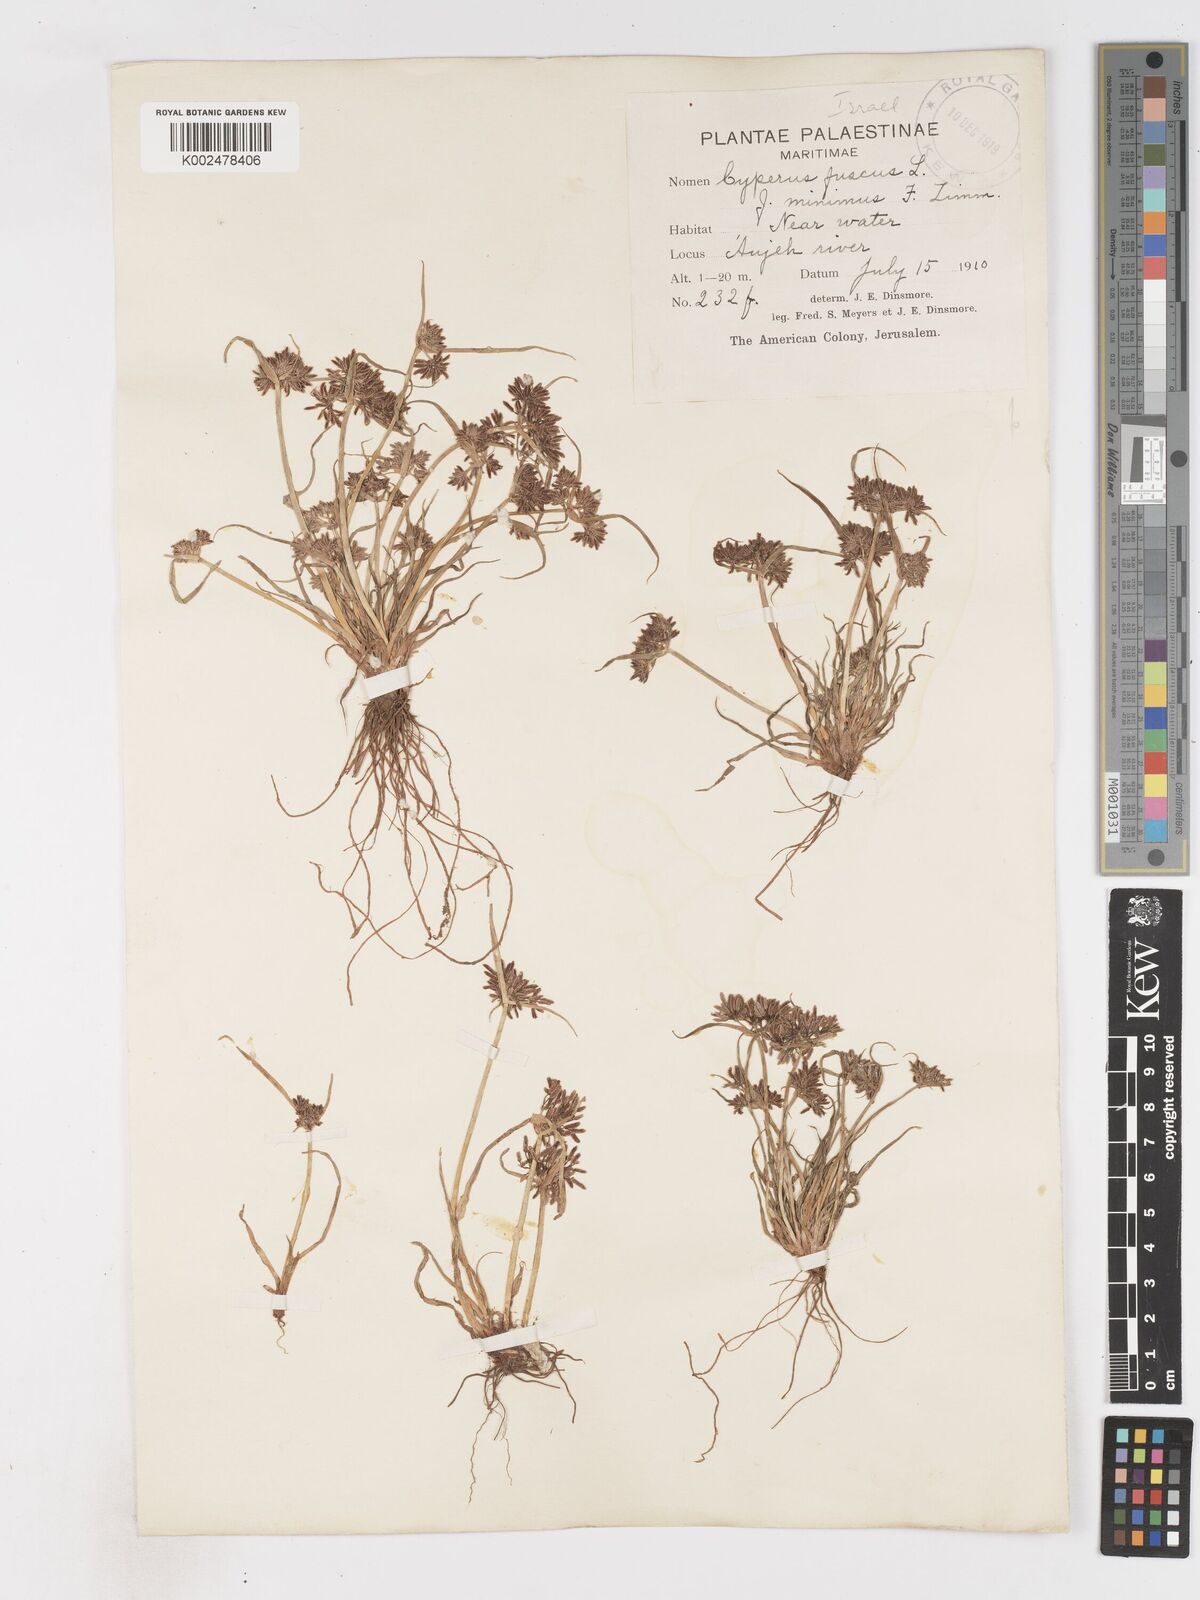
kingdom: Plantae
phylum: Tracheophyta
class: Liliopsida
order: Poales
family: Cyperaceae
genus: Cyperus
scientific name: Cyperus fuscus
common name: Brown galingale
